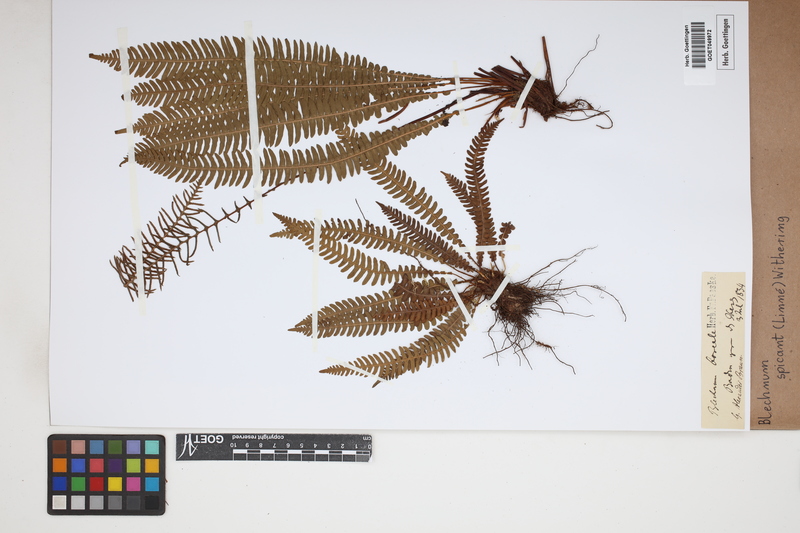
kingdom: Plantae
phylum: Tracheophyta
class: Polypodiopsida
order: Polypodiales
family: Blechnaceae
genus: Struthiopteris
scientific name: Struthiopteris spicant
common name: Deer fern
